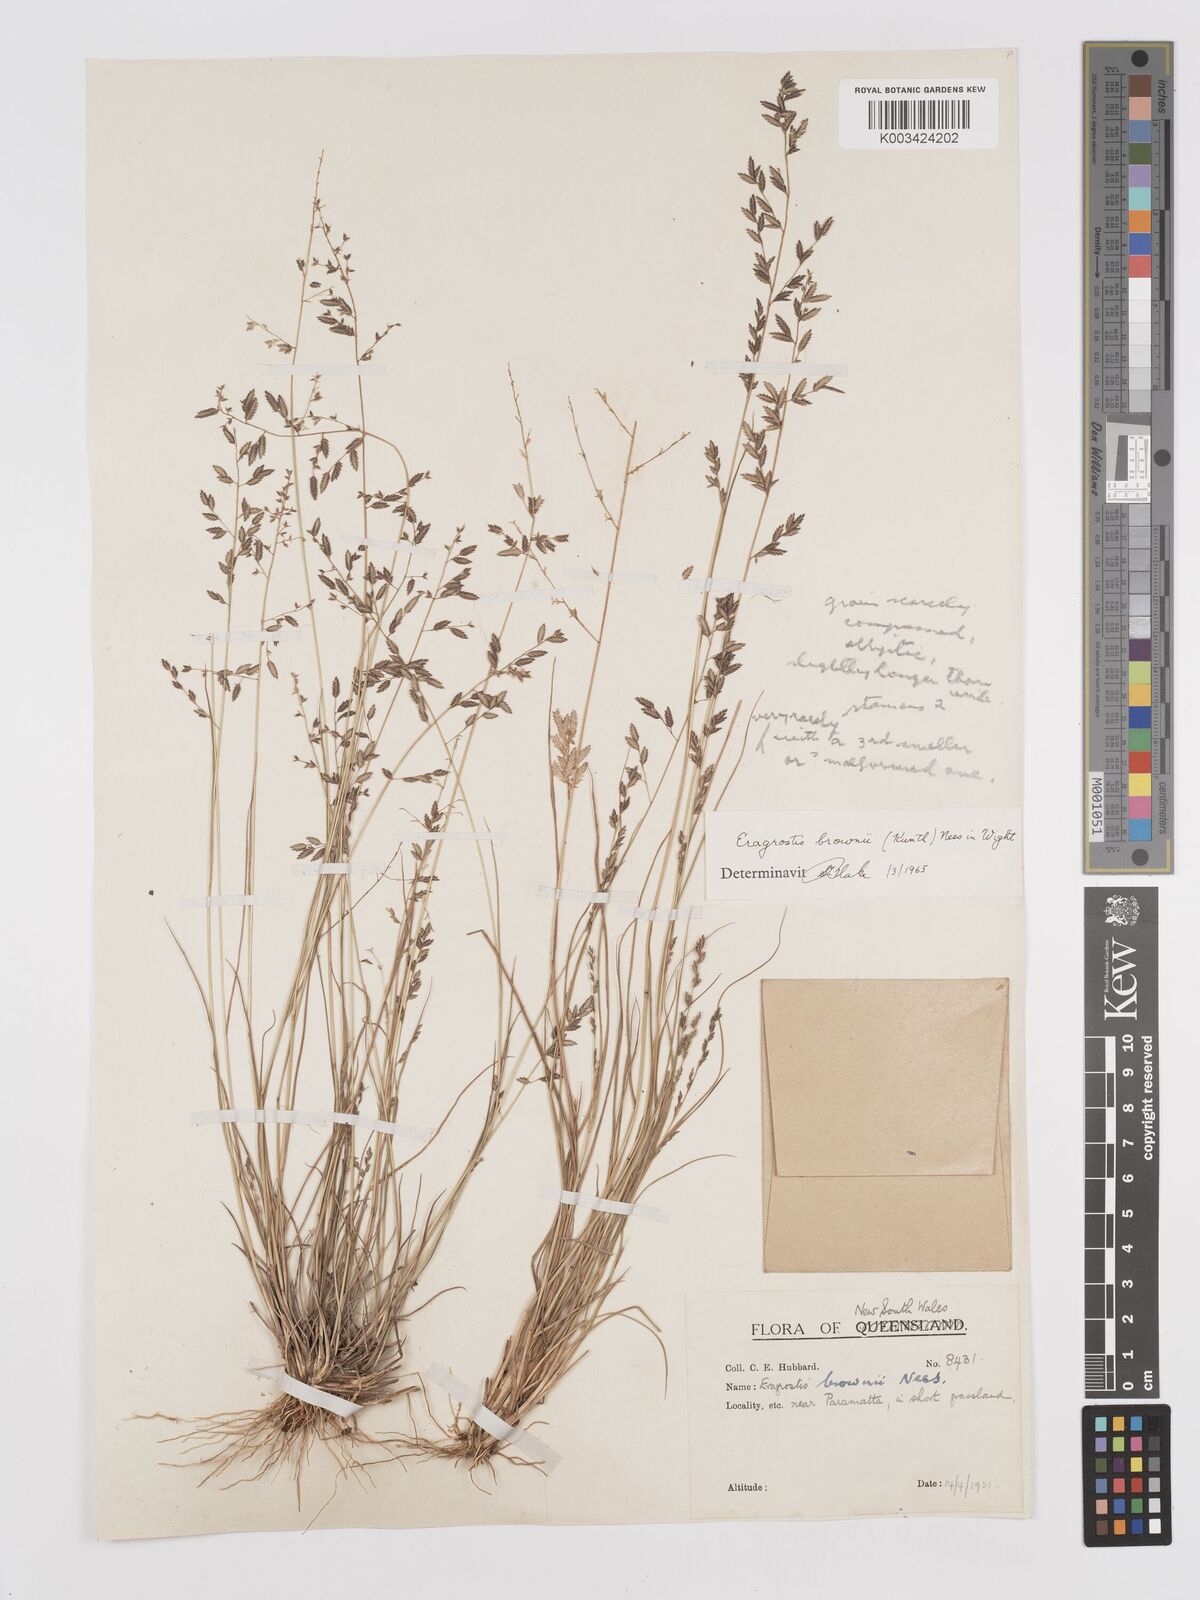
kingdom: Plantae
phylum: Tracheophyta
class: Liliopsida
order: Poales
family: Poaceae
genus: Eragrostis
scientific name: Eragrostis brownii
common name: Lovegrass
